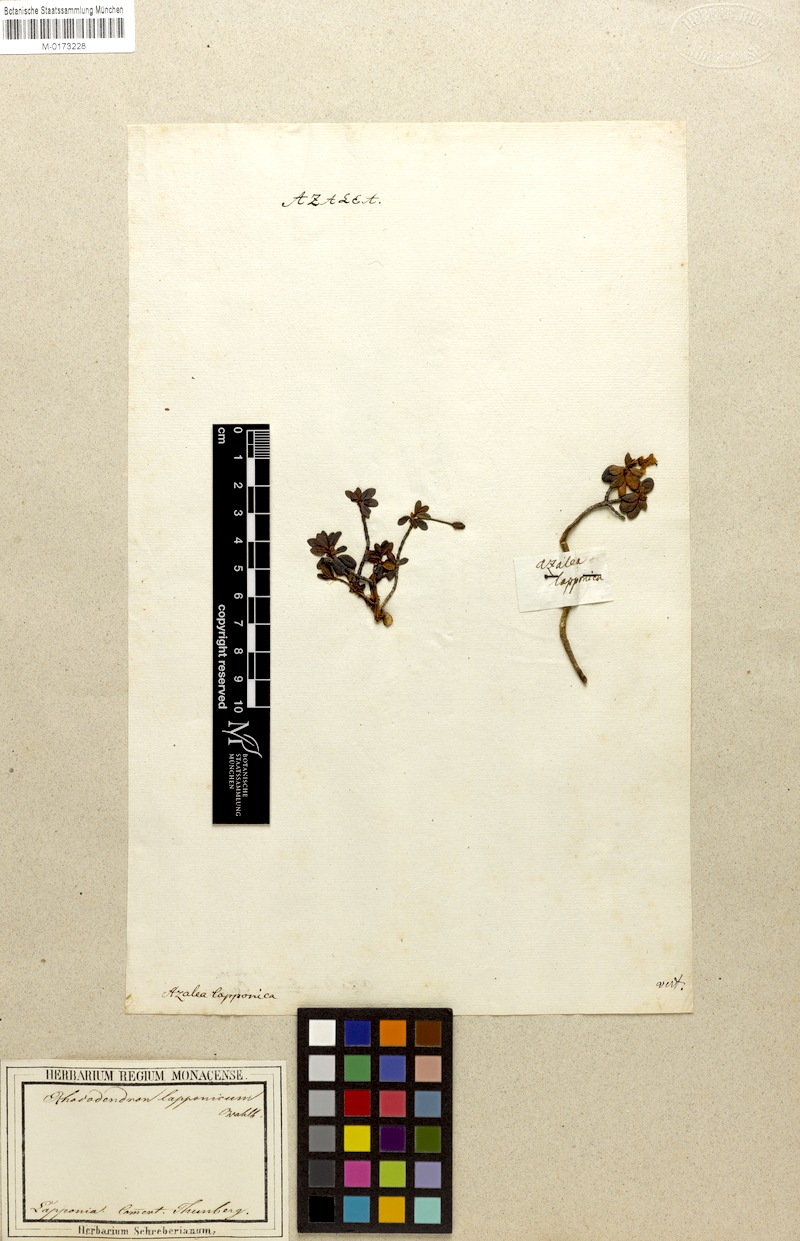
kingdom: Plantae
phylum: Tracheophyta
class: Magnoliopsida
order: Ericales
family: Ericaceae
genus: Rhododendron
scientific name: Rhododendron lapponicum
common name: Lapland rhododendron
